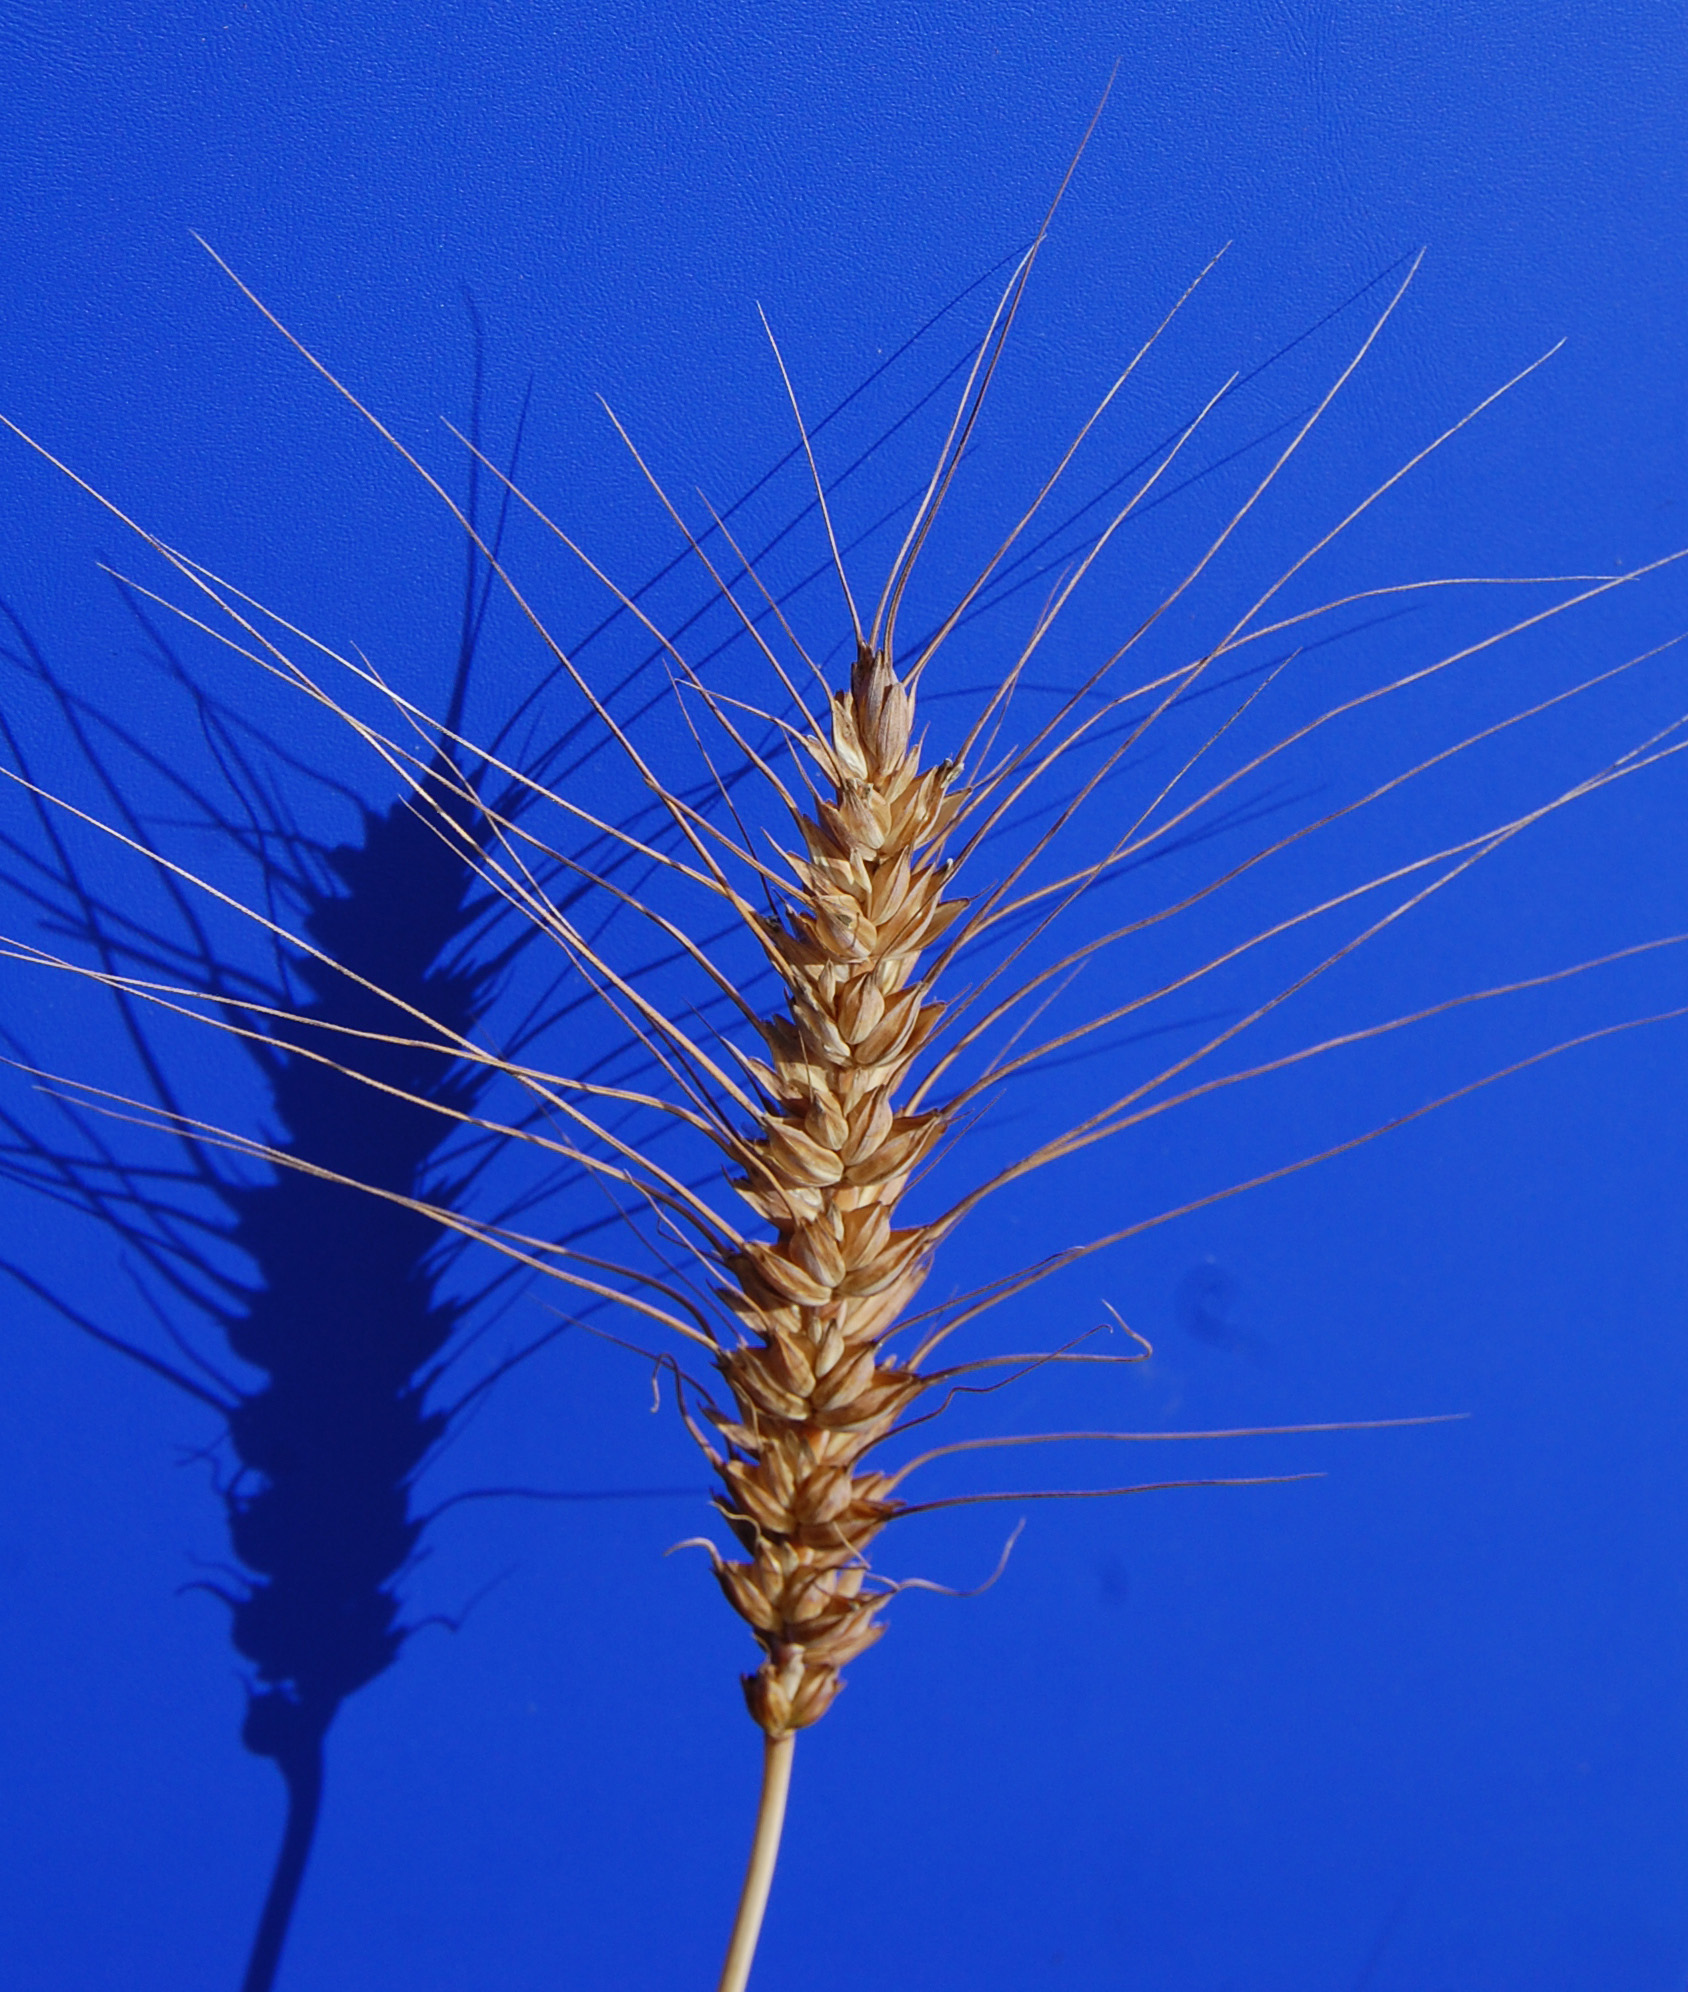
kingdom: Plantae
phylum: Tracheophyta
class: Liliopsida
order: Poales
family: Poaceae
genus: Triticum
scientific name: Triticum aestivum
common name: Common wheat
